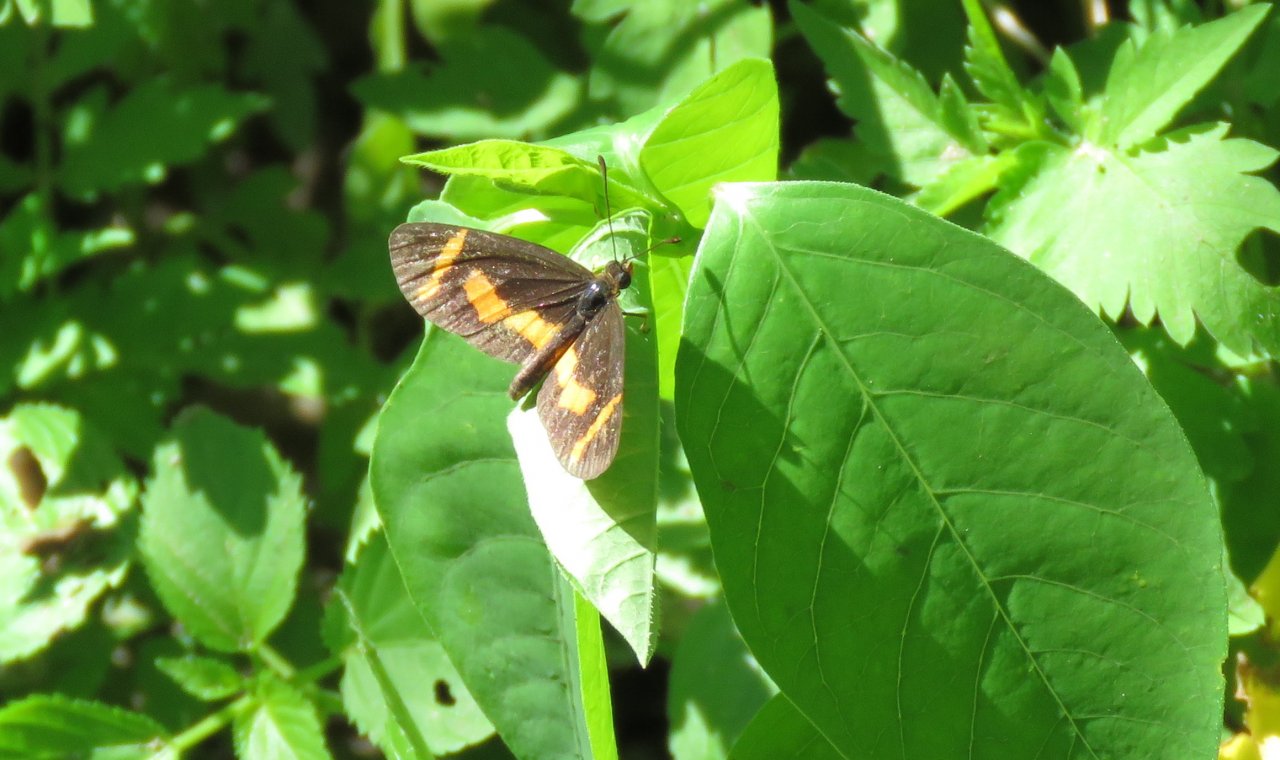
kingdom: Animalia
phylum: Arthropoda
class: Insecta
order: Lepidoptera
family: Nymphalidae
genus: Microtia
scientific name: Microtia elva
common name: Elf
